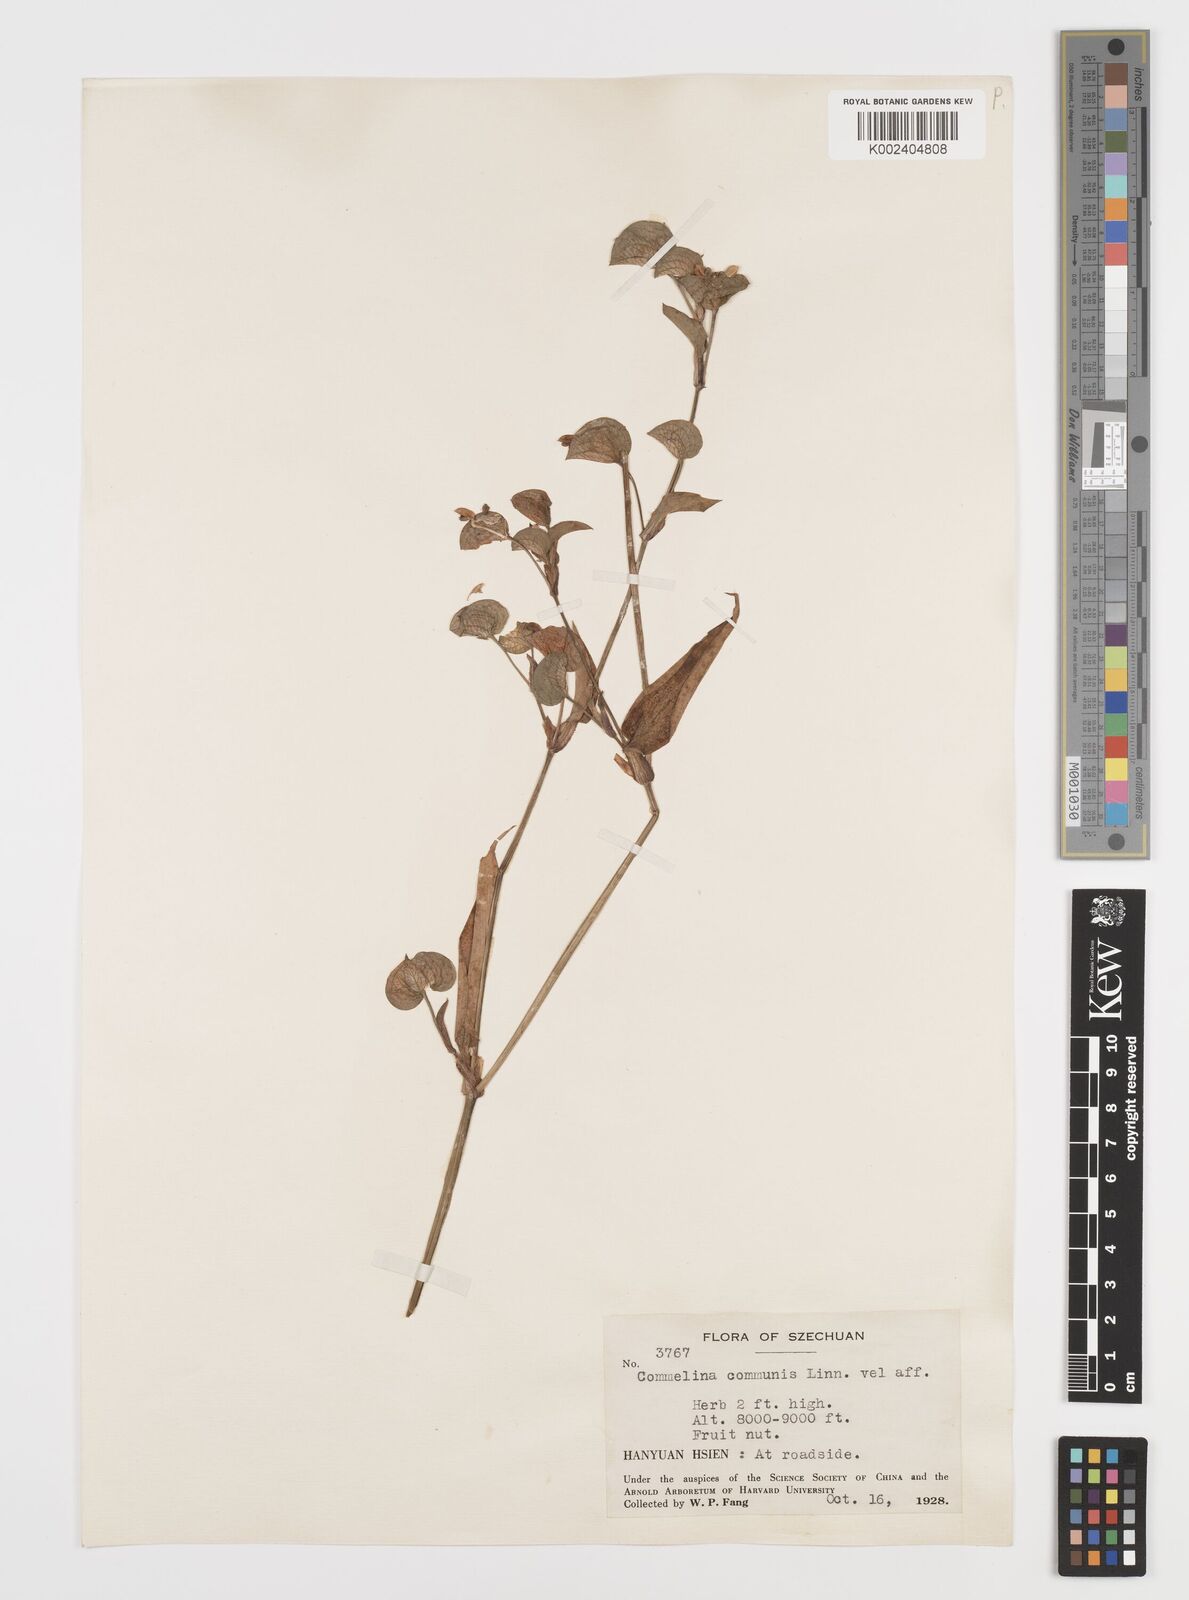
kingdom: Plantae
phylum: Tracheophyta
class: Liliopsida
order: Commelinales
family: Commelinaceae
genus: Commelina
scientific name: Commelina communis
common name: Asiatic dayflower
